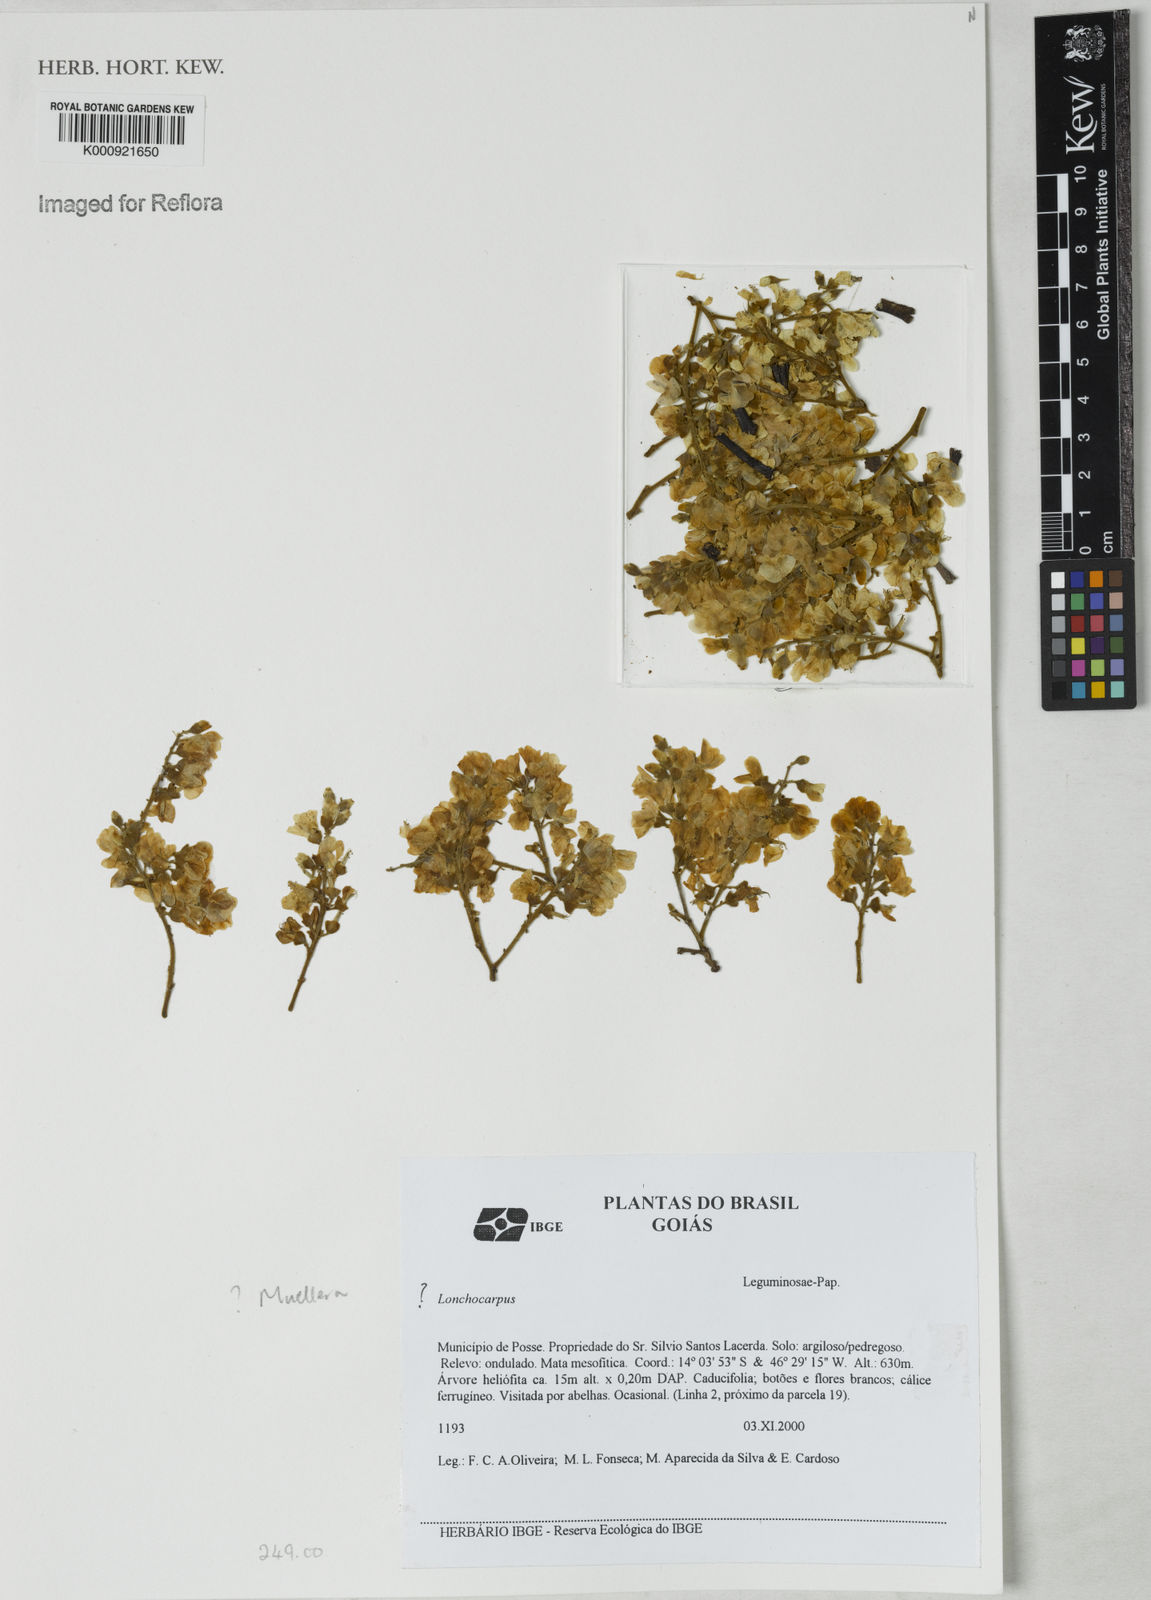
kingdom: Plantae
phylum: Tracheophyta
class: Magnoliopsida
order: Fabales
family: Fabaceae
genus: Muellera
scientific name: Muellera
